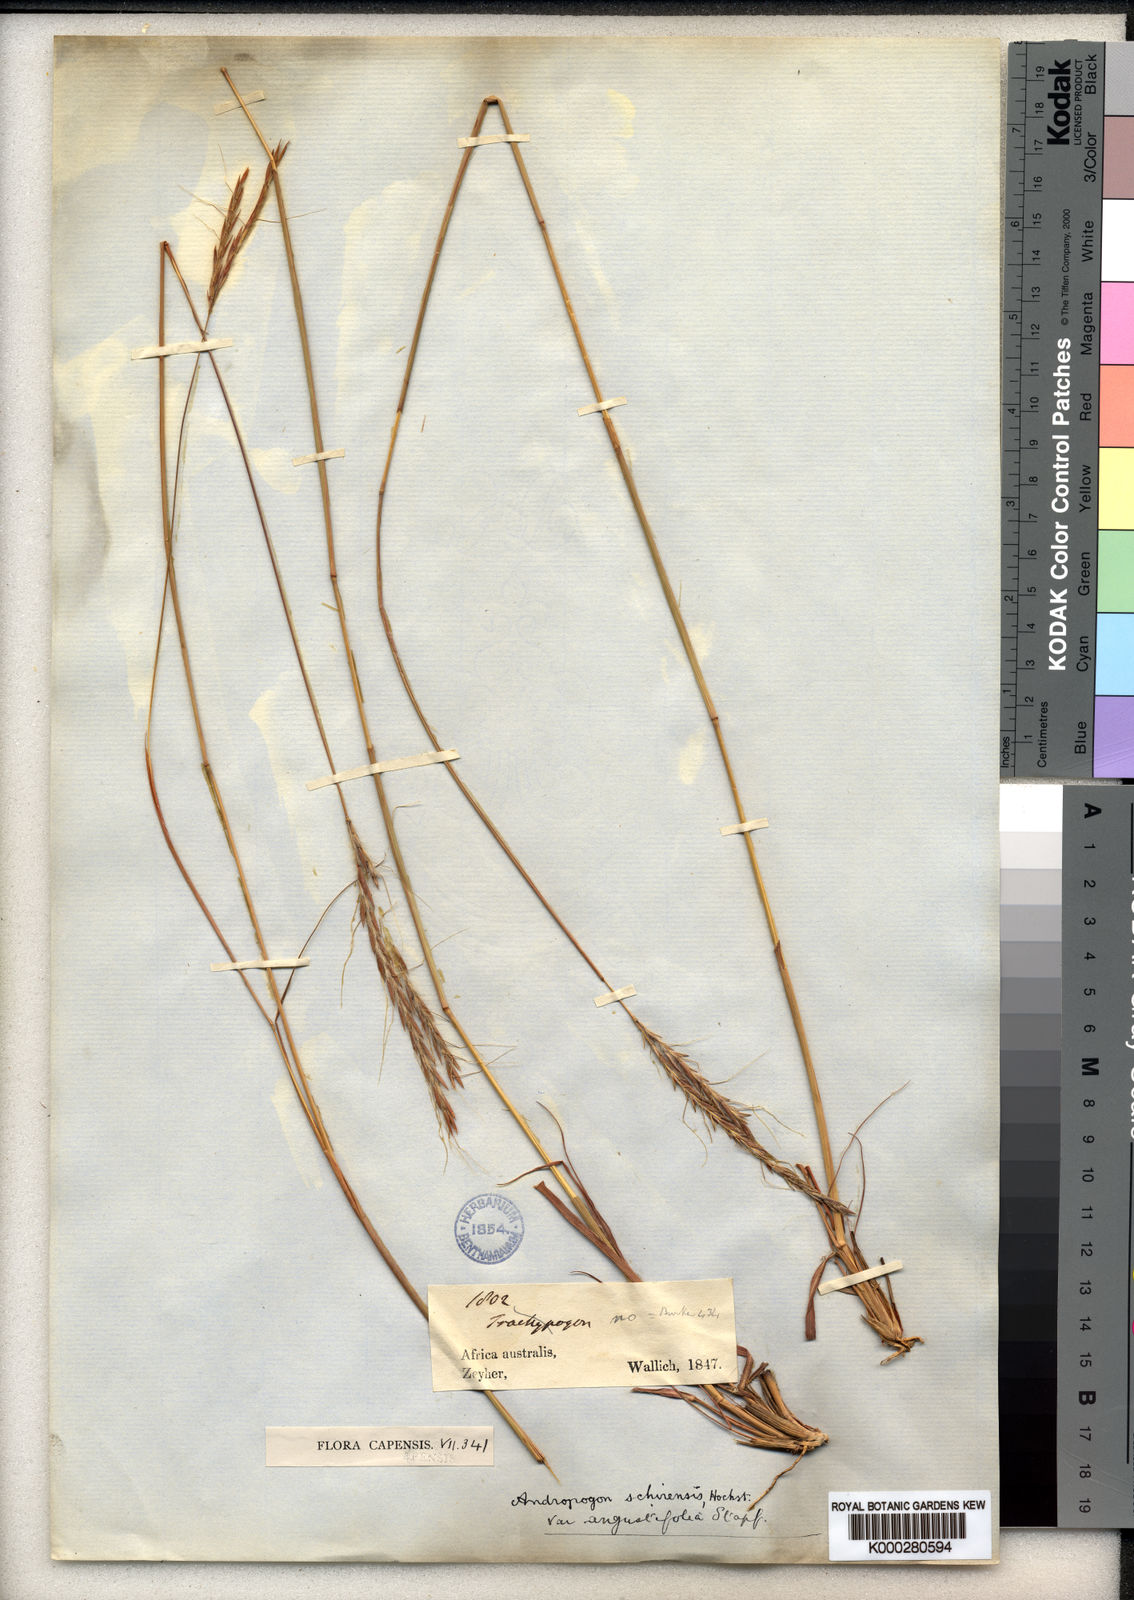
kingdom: Plantae
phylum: Tracheophyta
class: Liliopsida
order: Poales
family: Poaceae
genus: Andropogon
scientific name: Andropogon
